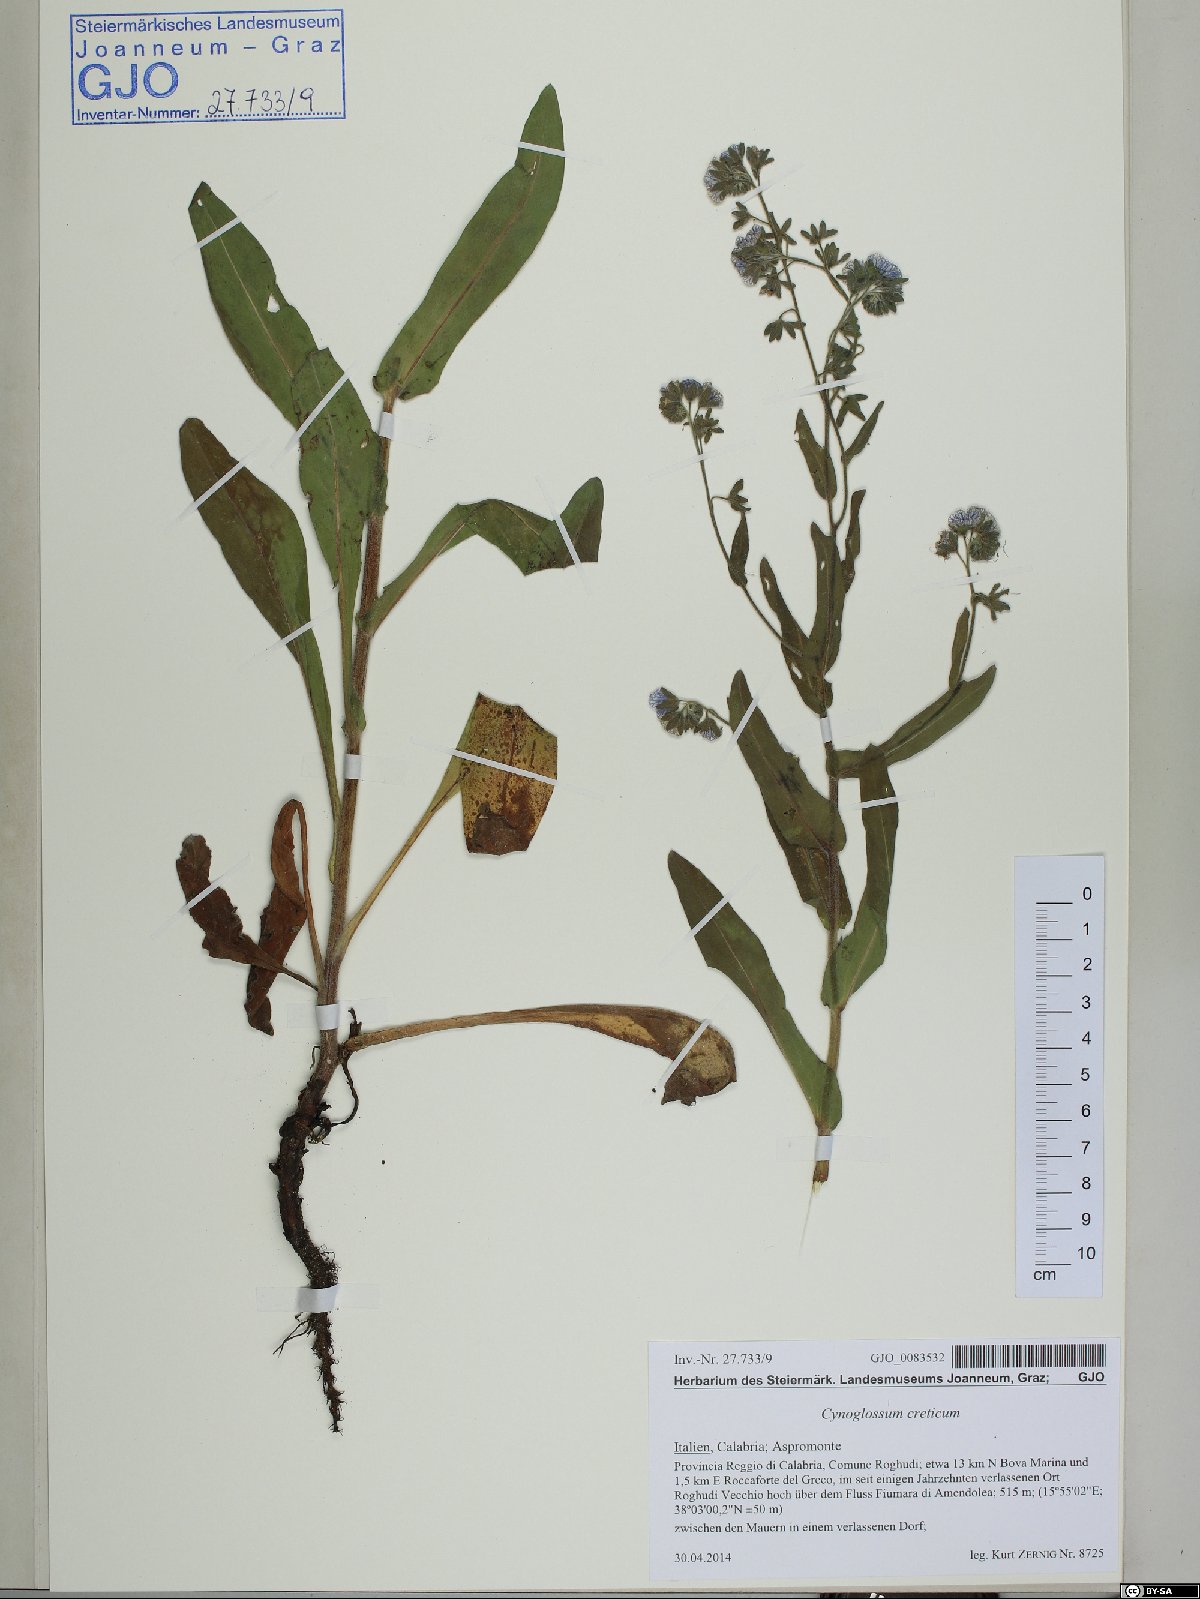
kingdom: Plantae
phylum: Tracheophyta
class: Magnoliopsida
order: Boraginales
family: Boraginaceae
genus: Cynoglossum
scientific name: Cynoglossum creticum
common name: Blue hound's tongue
